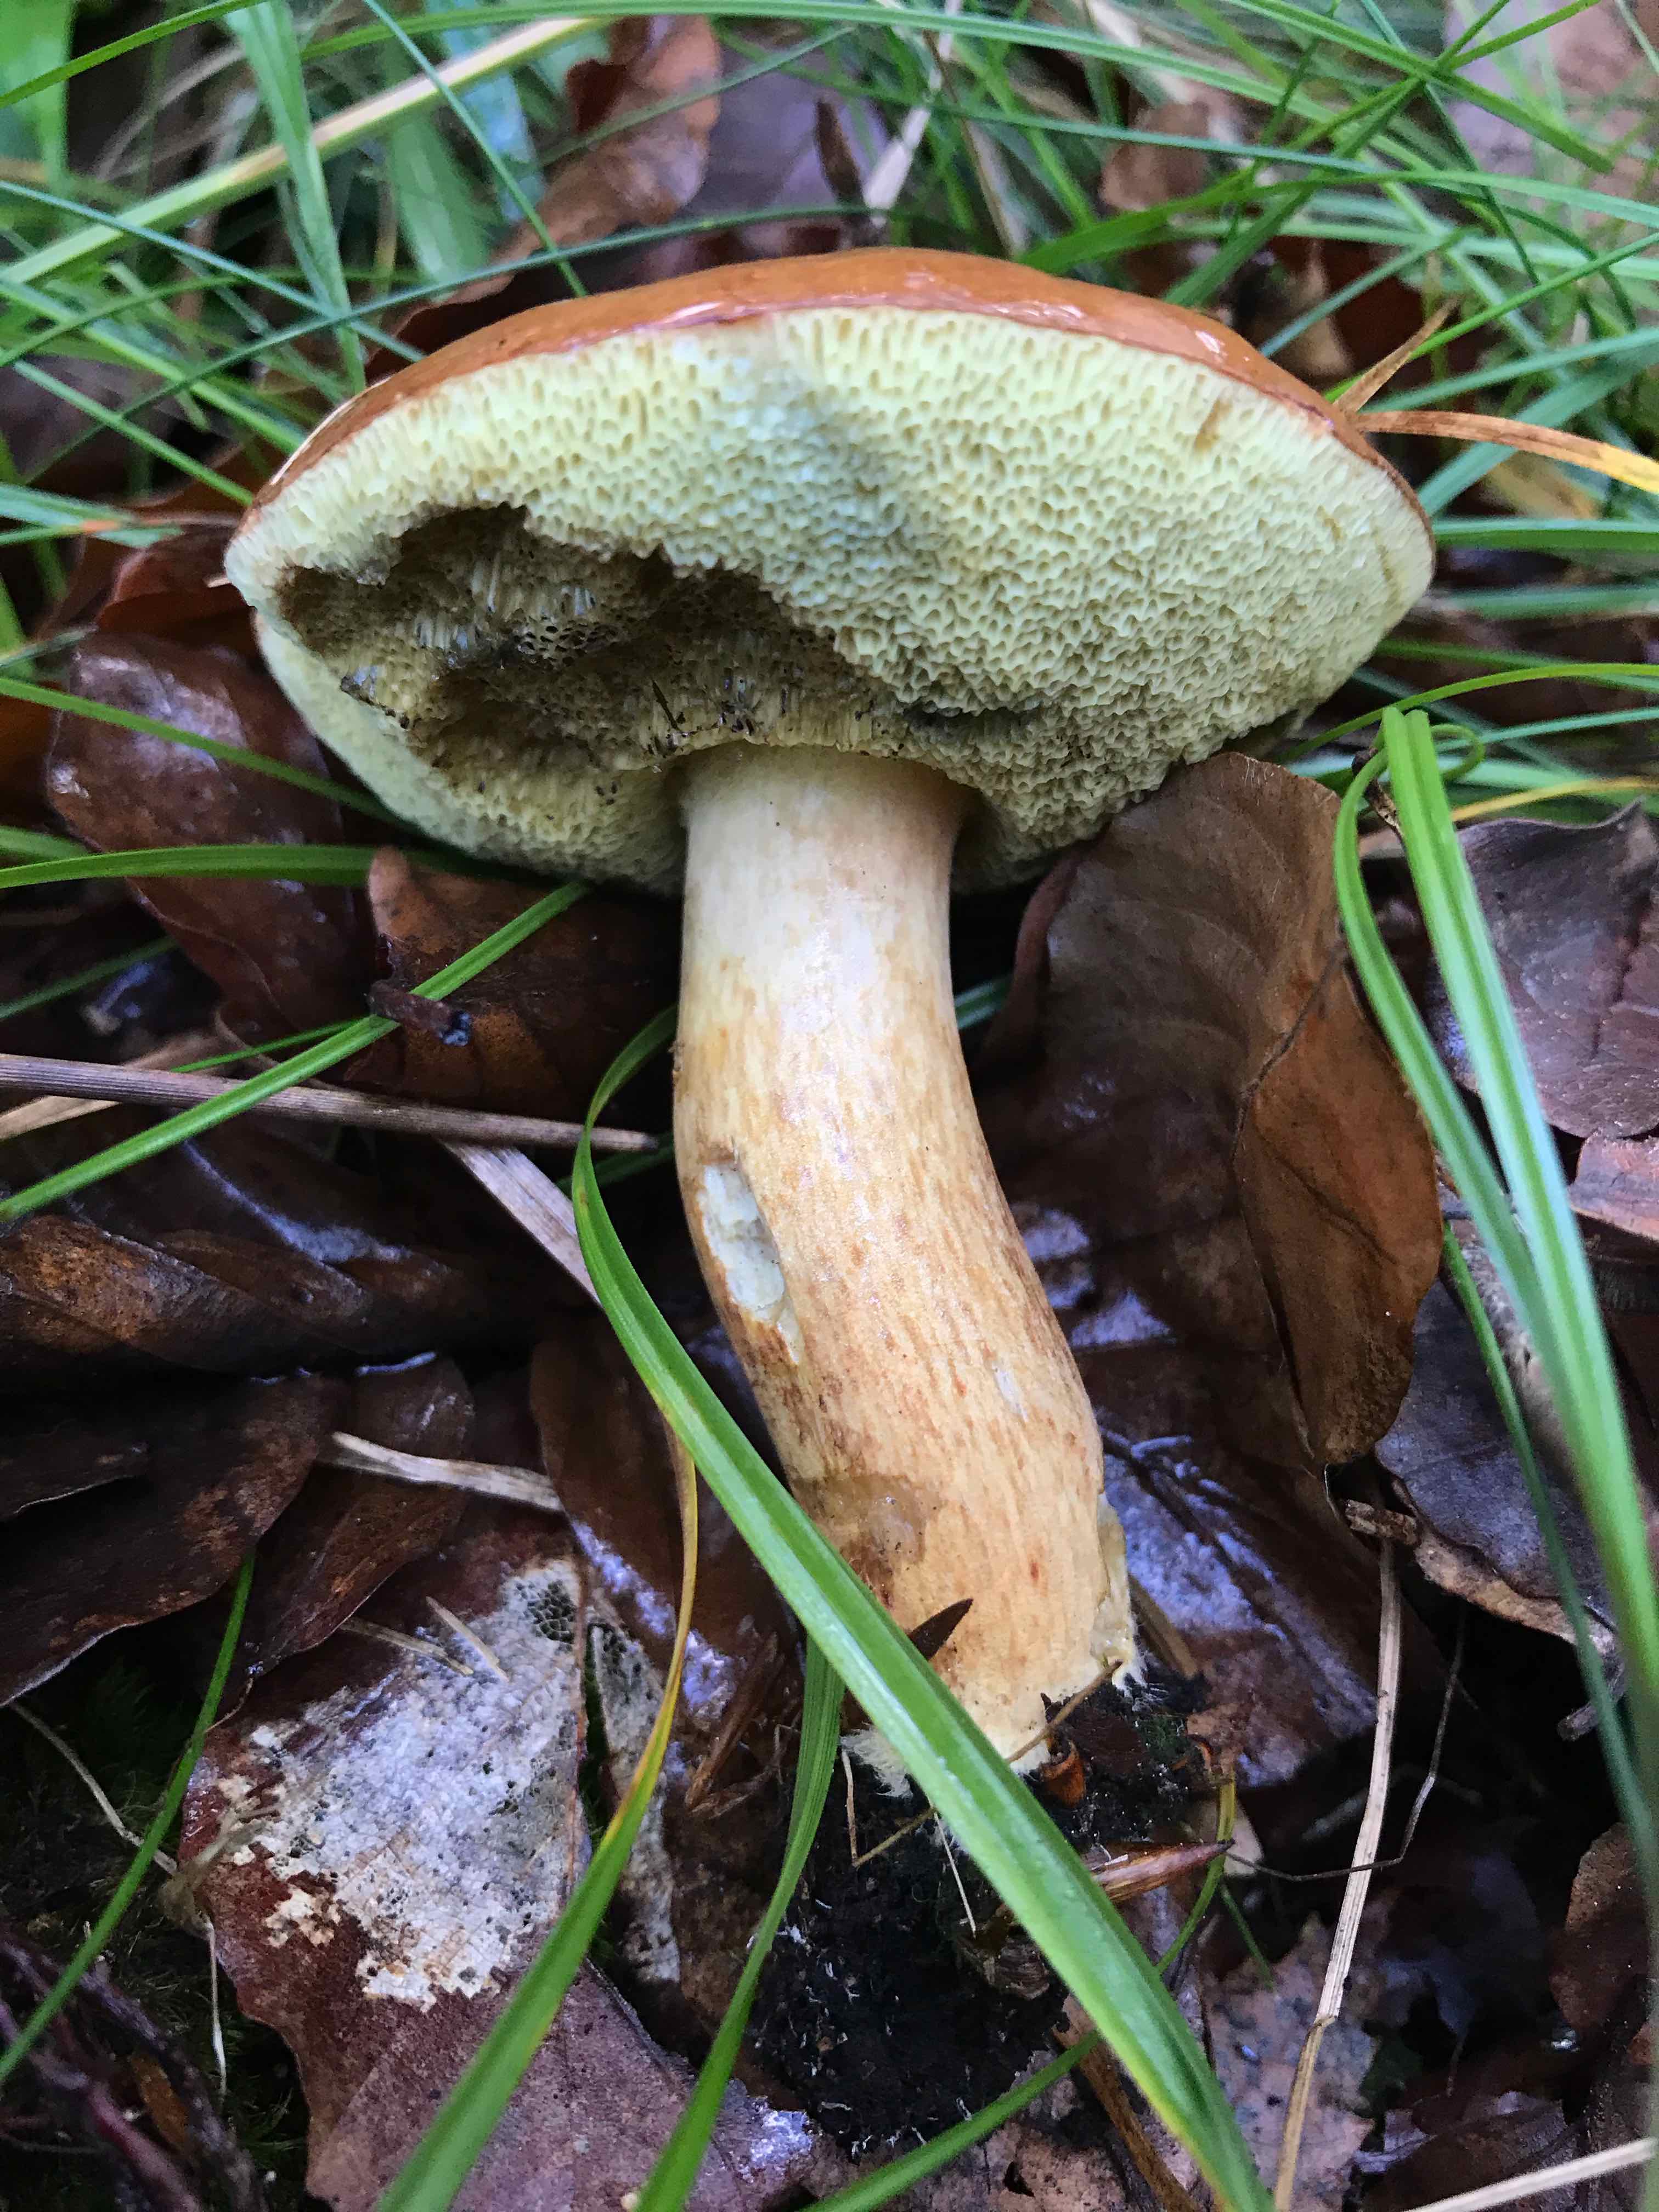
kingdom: Fungi
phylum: Basidiomycota
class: Agaricomycetes
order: Boletales
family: Boletaceae
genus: Imleria
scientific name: Imleria badia
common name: brunstokket rørhat
